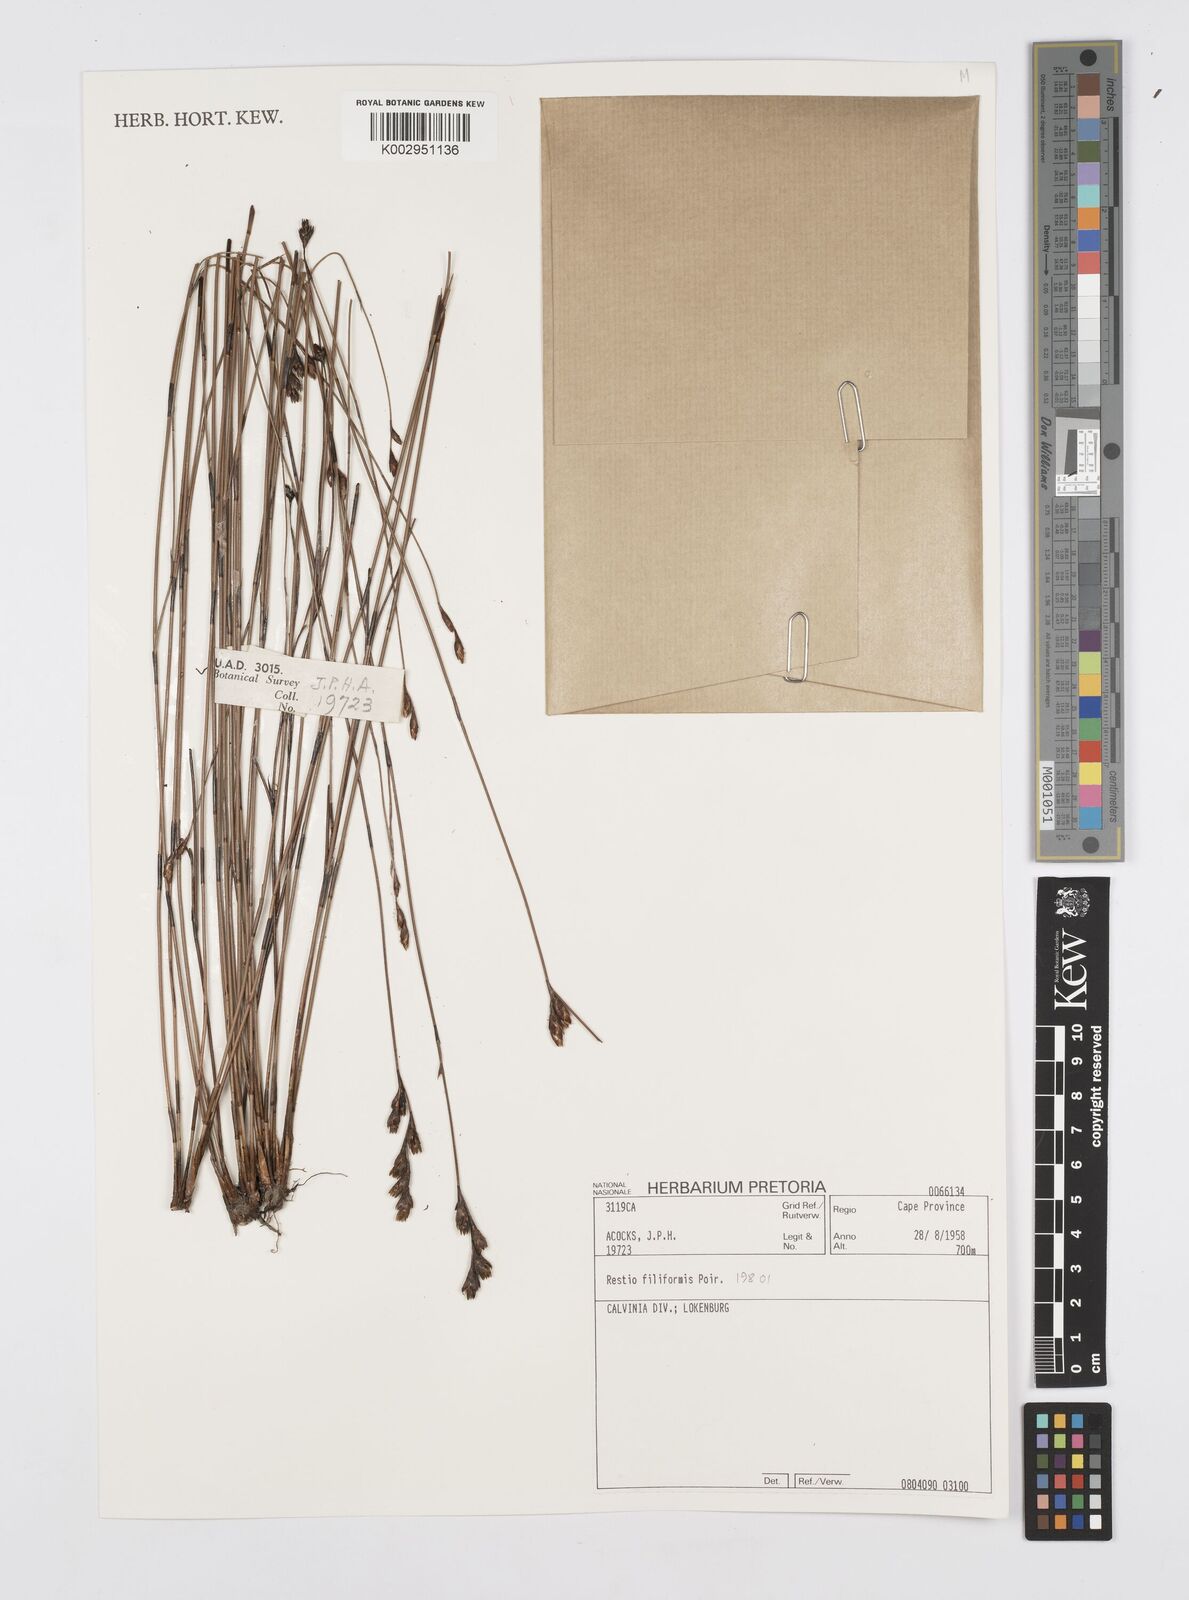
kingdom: Plantae
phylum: Tracheophyta
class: Liliopsida
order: Poales
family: Restionaceae
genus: Restio
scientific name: Restio fusiformis
